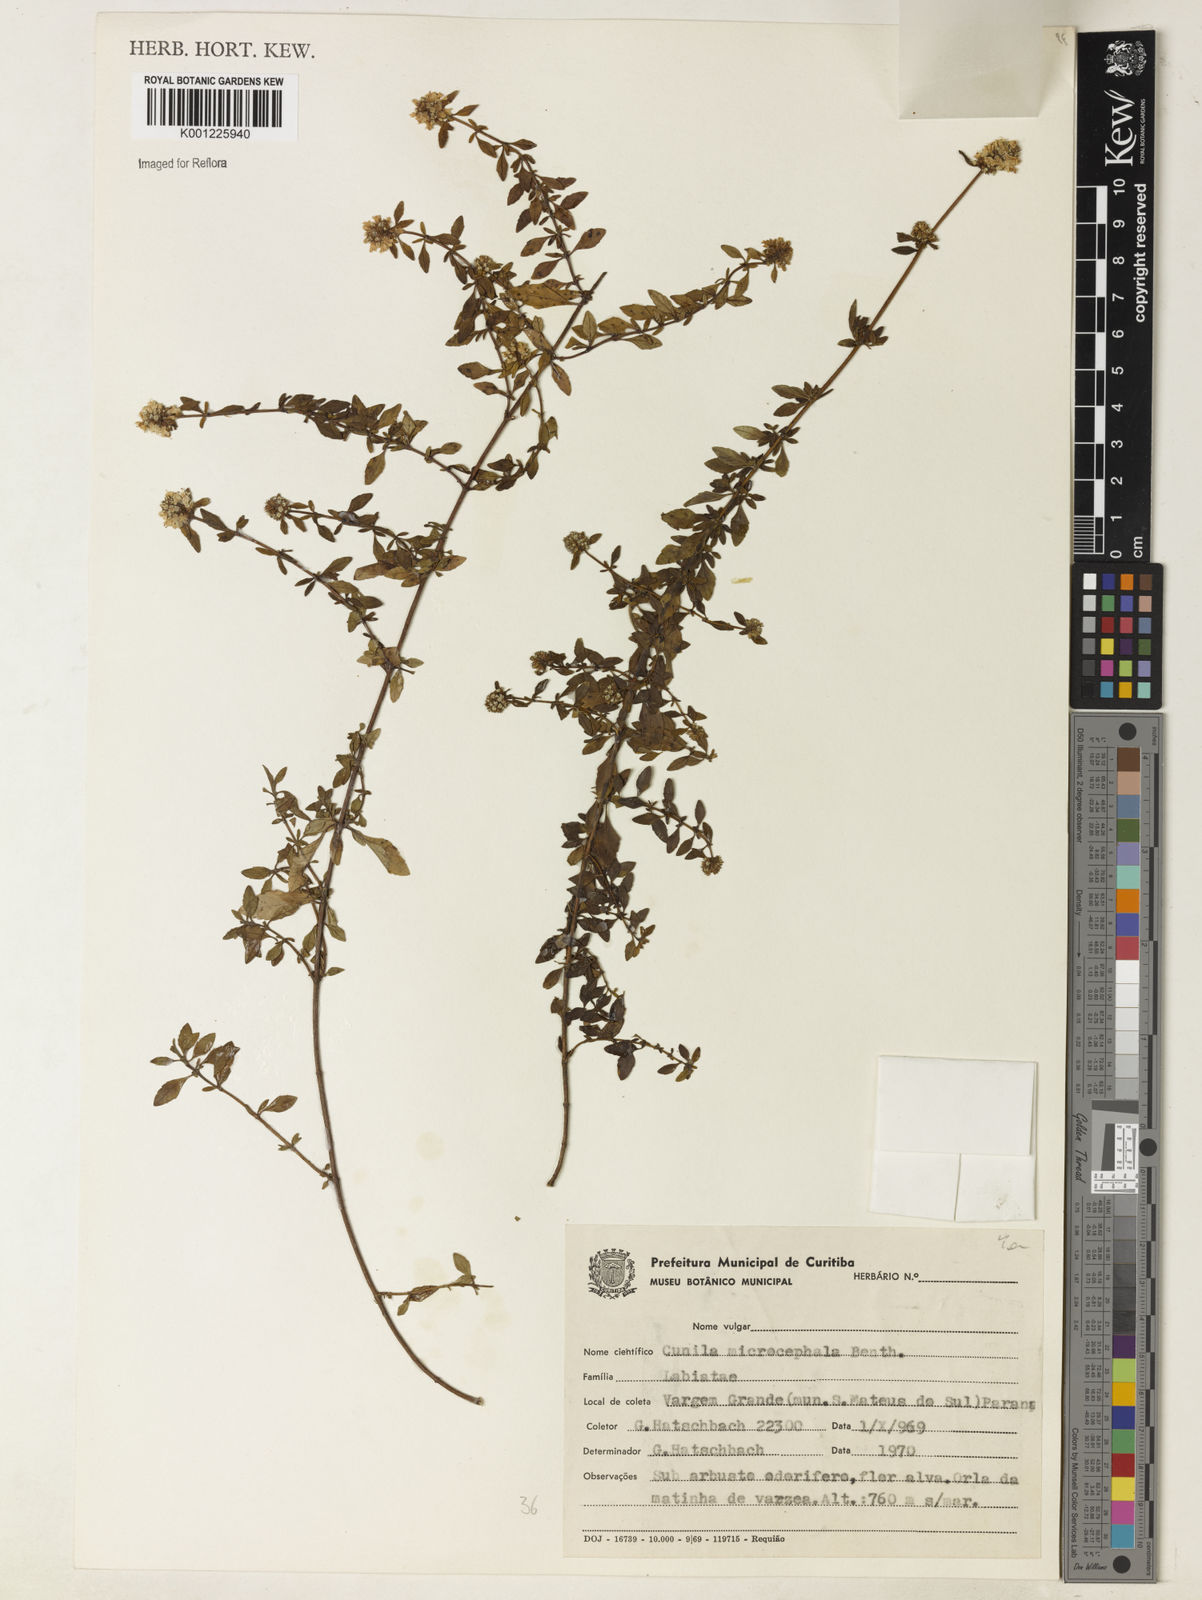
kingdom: Plantae
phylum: Tracheophyta
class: Magnoliopsida
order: Lamiales
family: Lamiaceae
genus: Cunila
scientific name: Cunila microcephala
